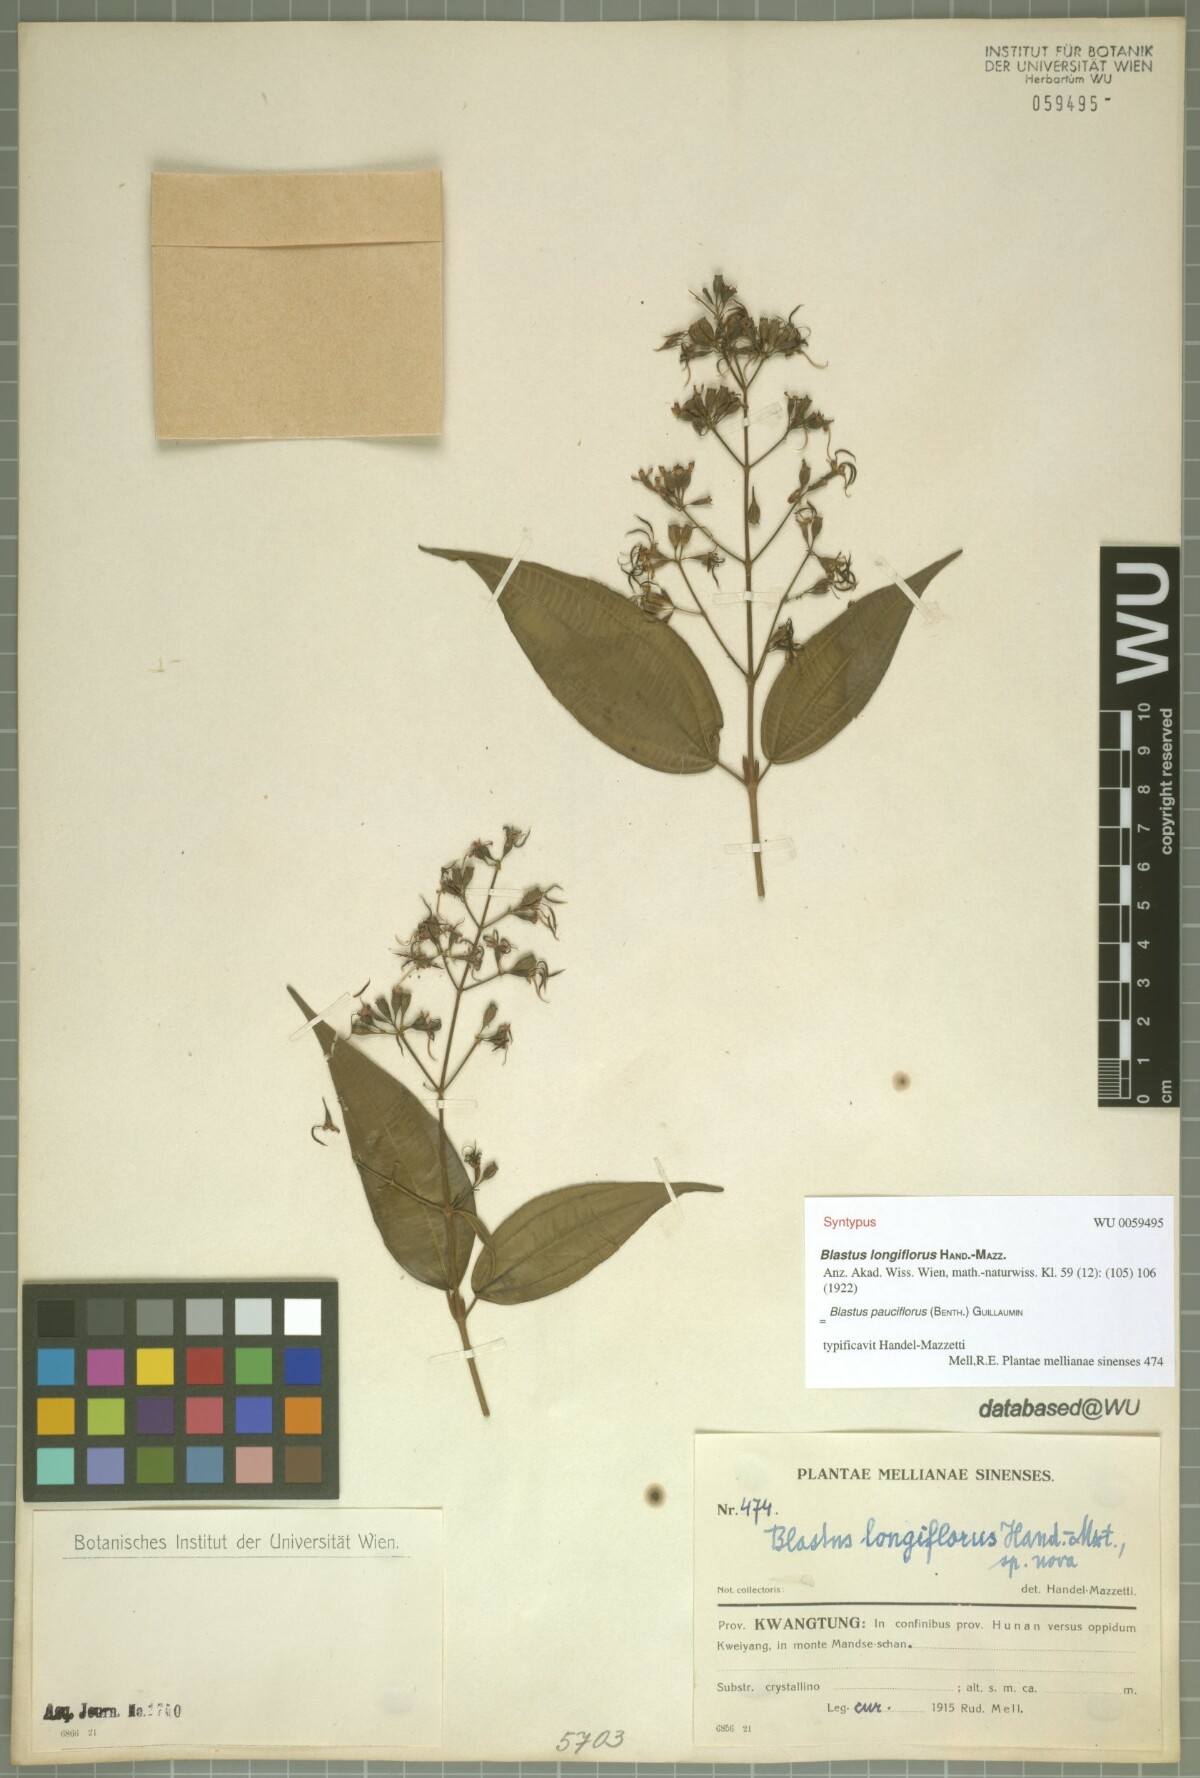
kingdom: Plantae
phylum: Tracheophyta
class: Magnoliopsida
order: Myrtales
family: Melastomataceae
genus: Blastus
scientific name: Blastus pauciflorus
